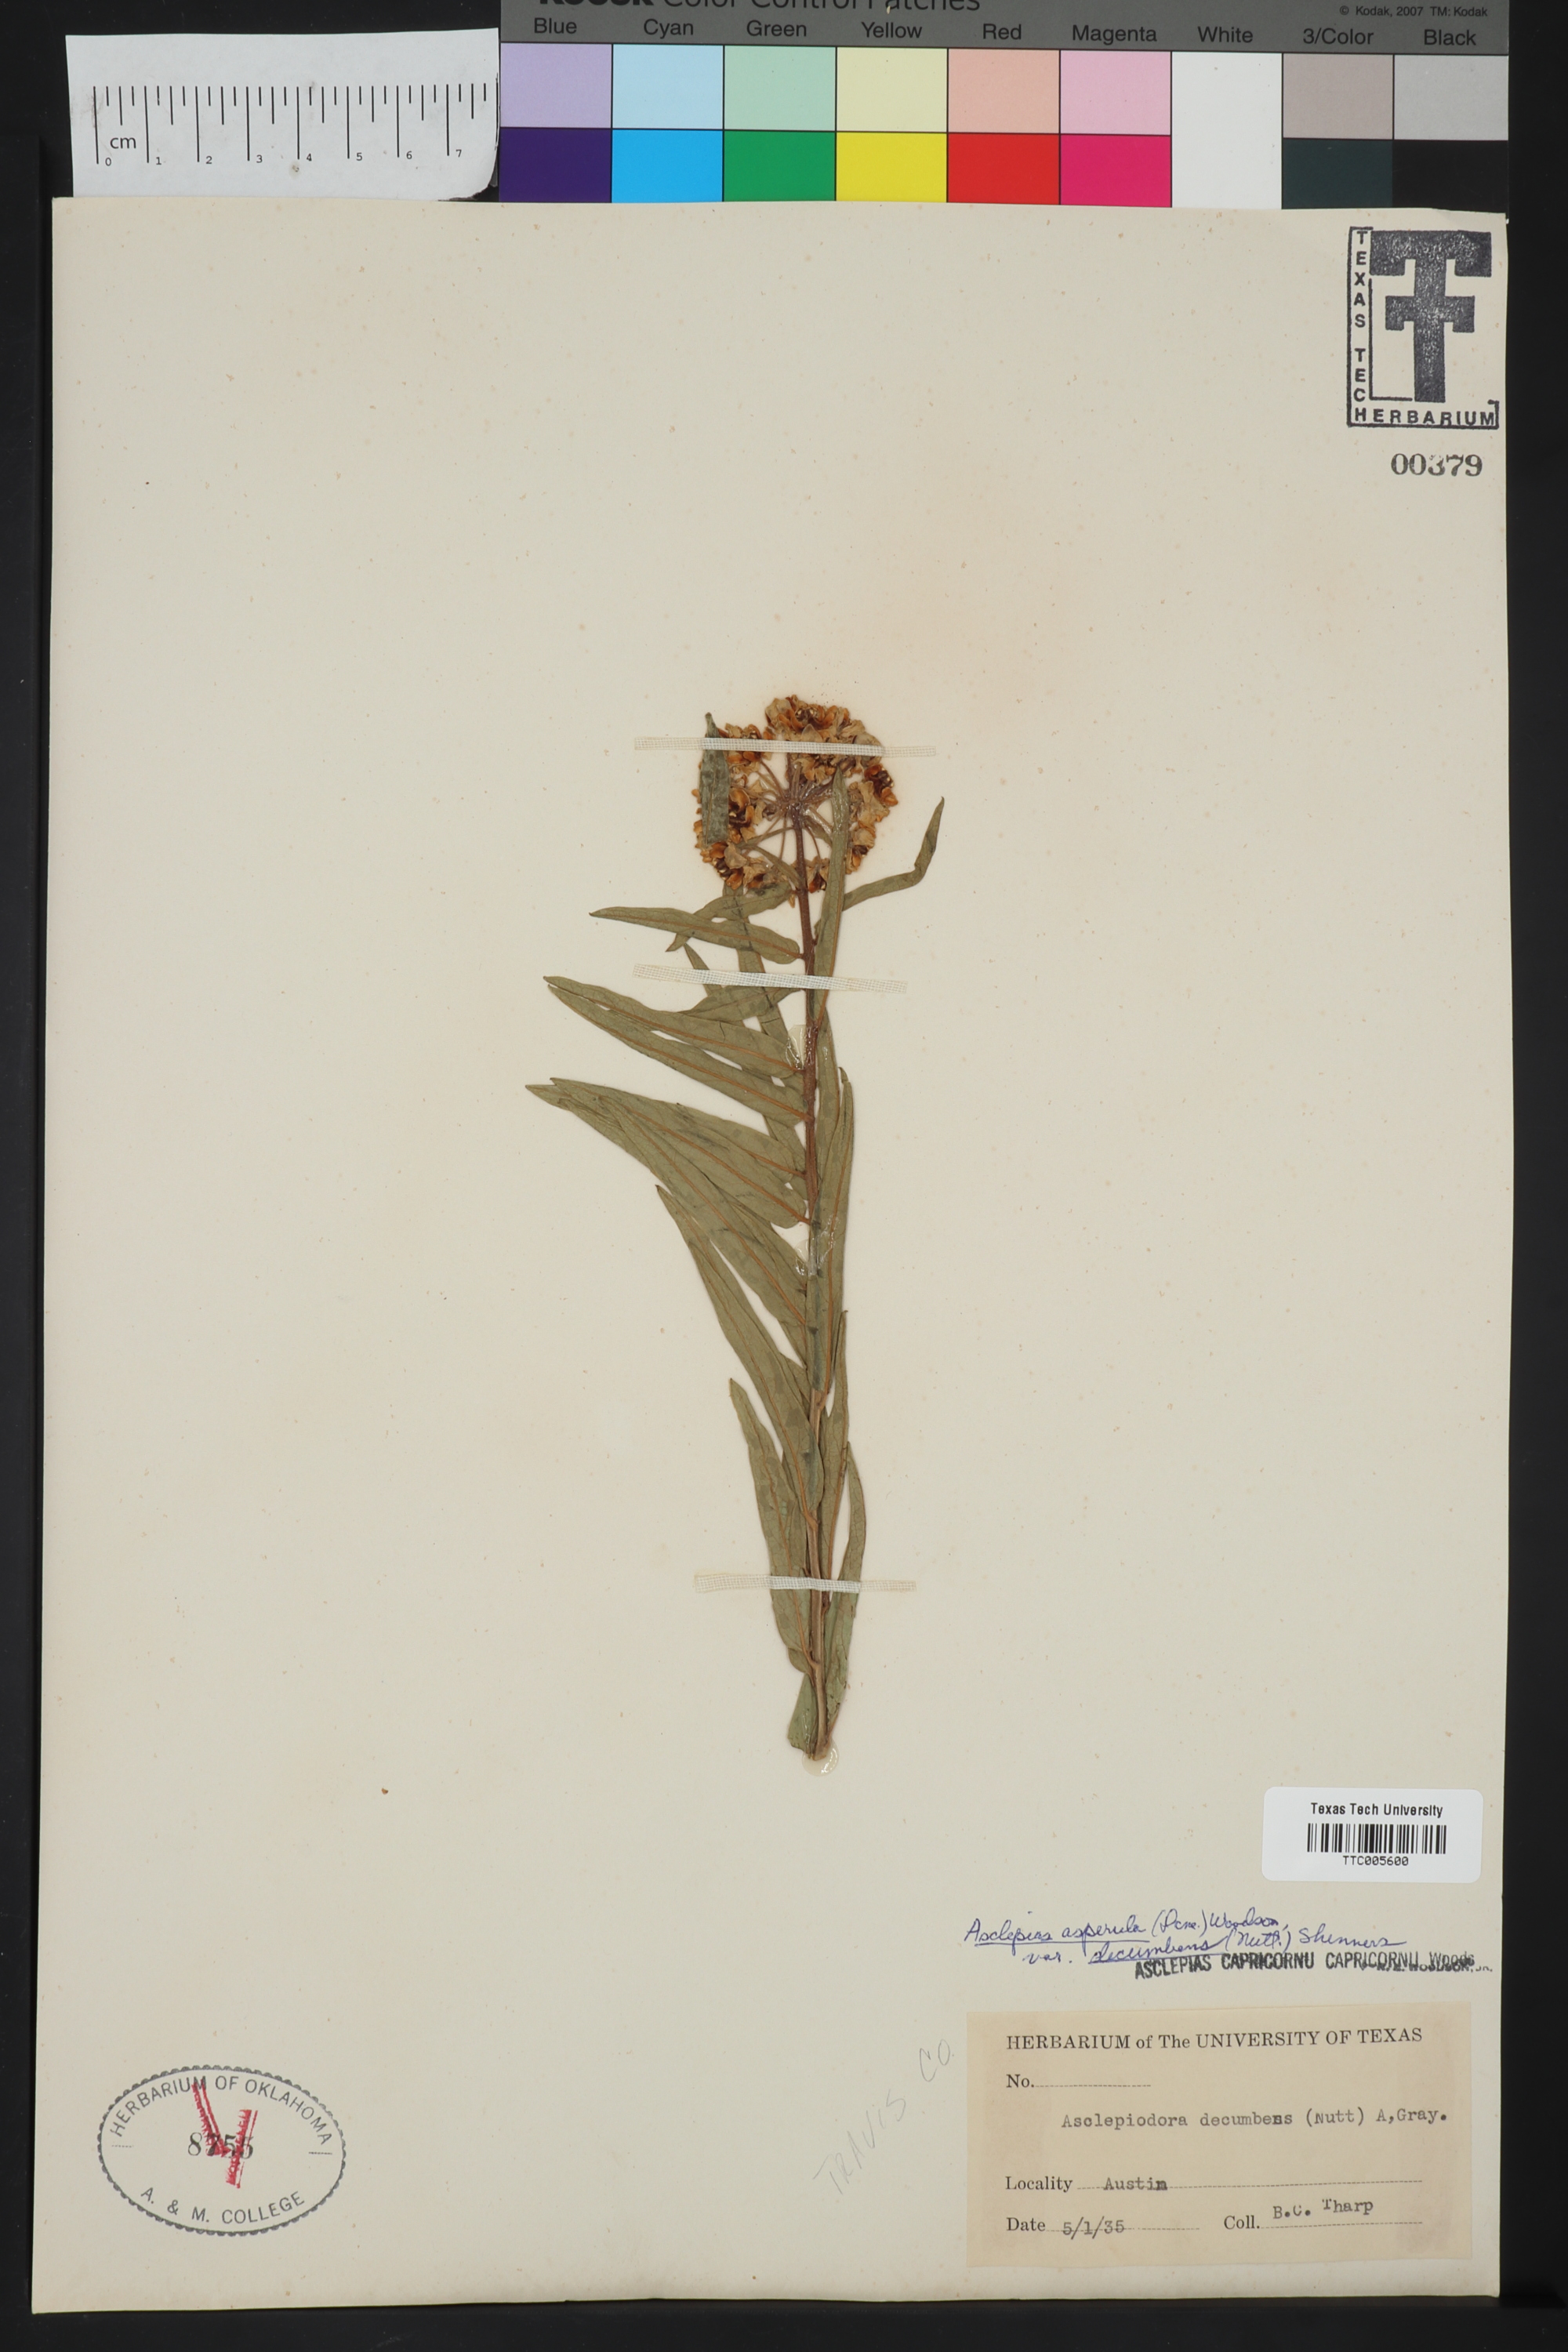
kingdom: Plantae
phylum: Tracheophyta
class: Magnoliopsida
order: Gentianales
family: Apocynaceae
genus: Asclepias
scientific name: Asclepias asperula
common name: Antelope horns
